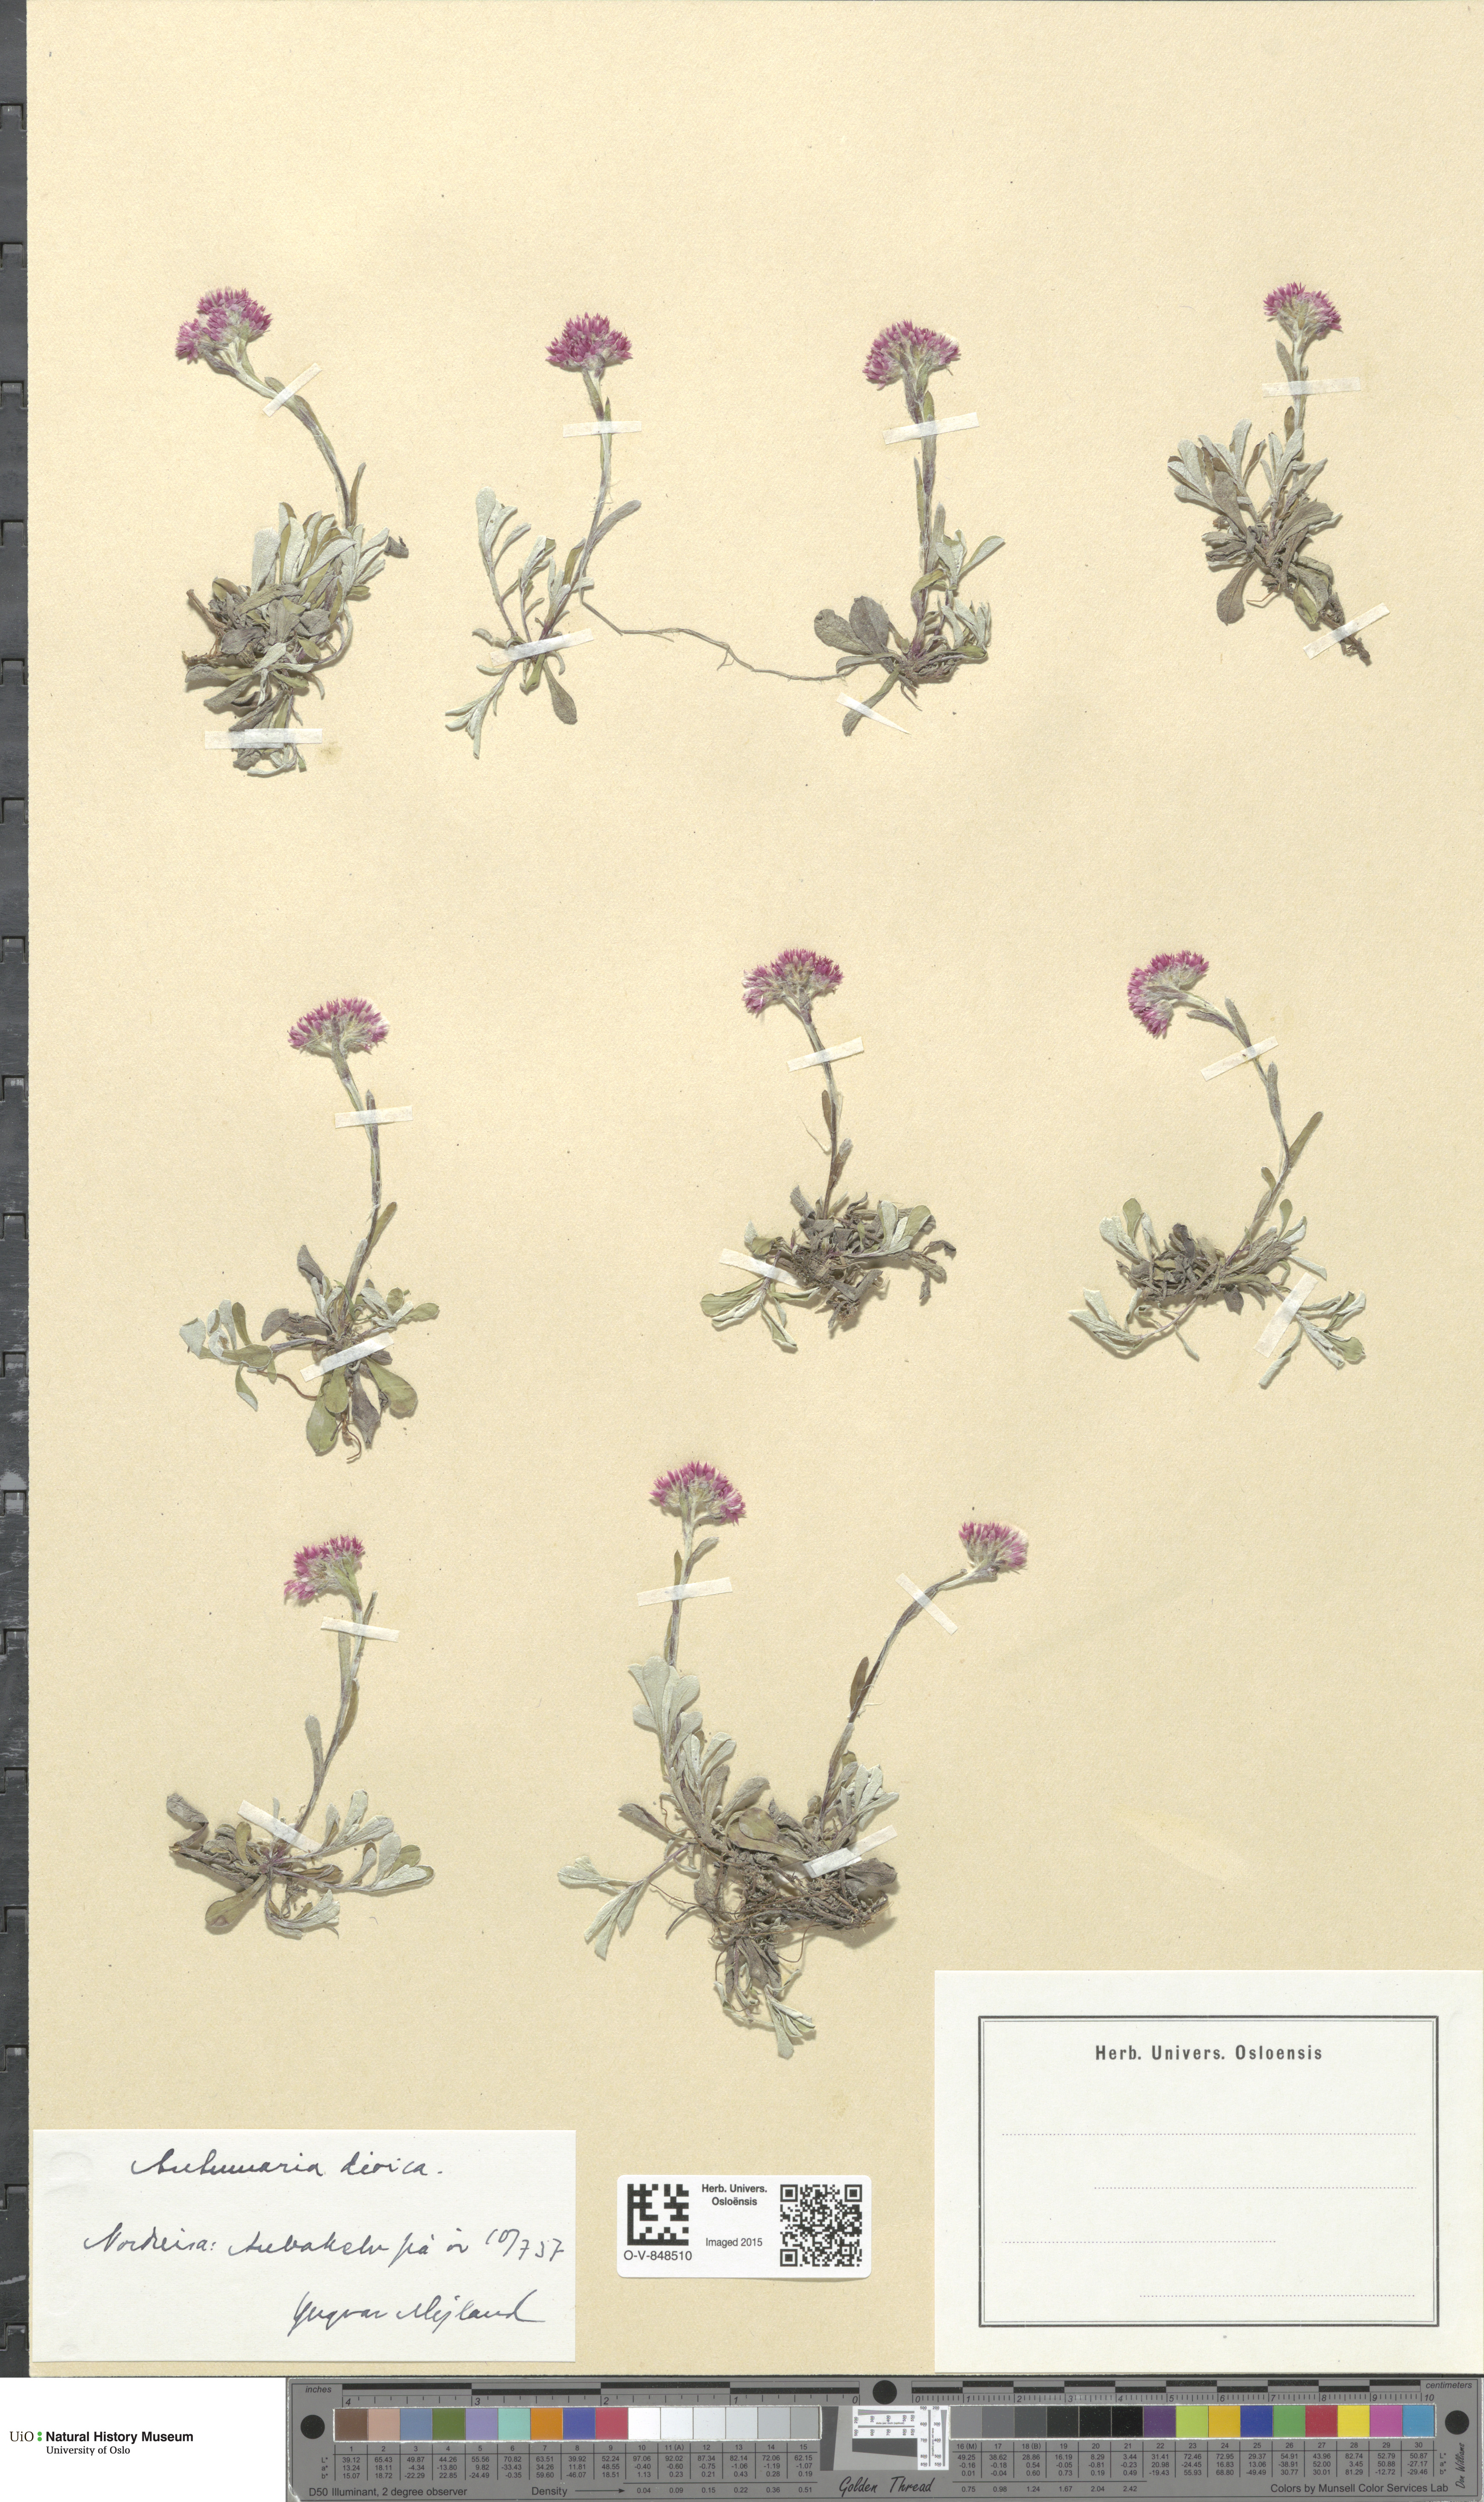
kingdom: Plantae
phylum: Tracheophyta
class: Magnoliopsida
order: Asterales
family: Asteraceae
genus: Antennaria
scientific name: Antennaria dioica
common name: Mountain everlasting
